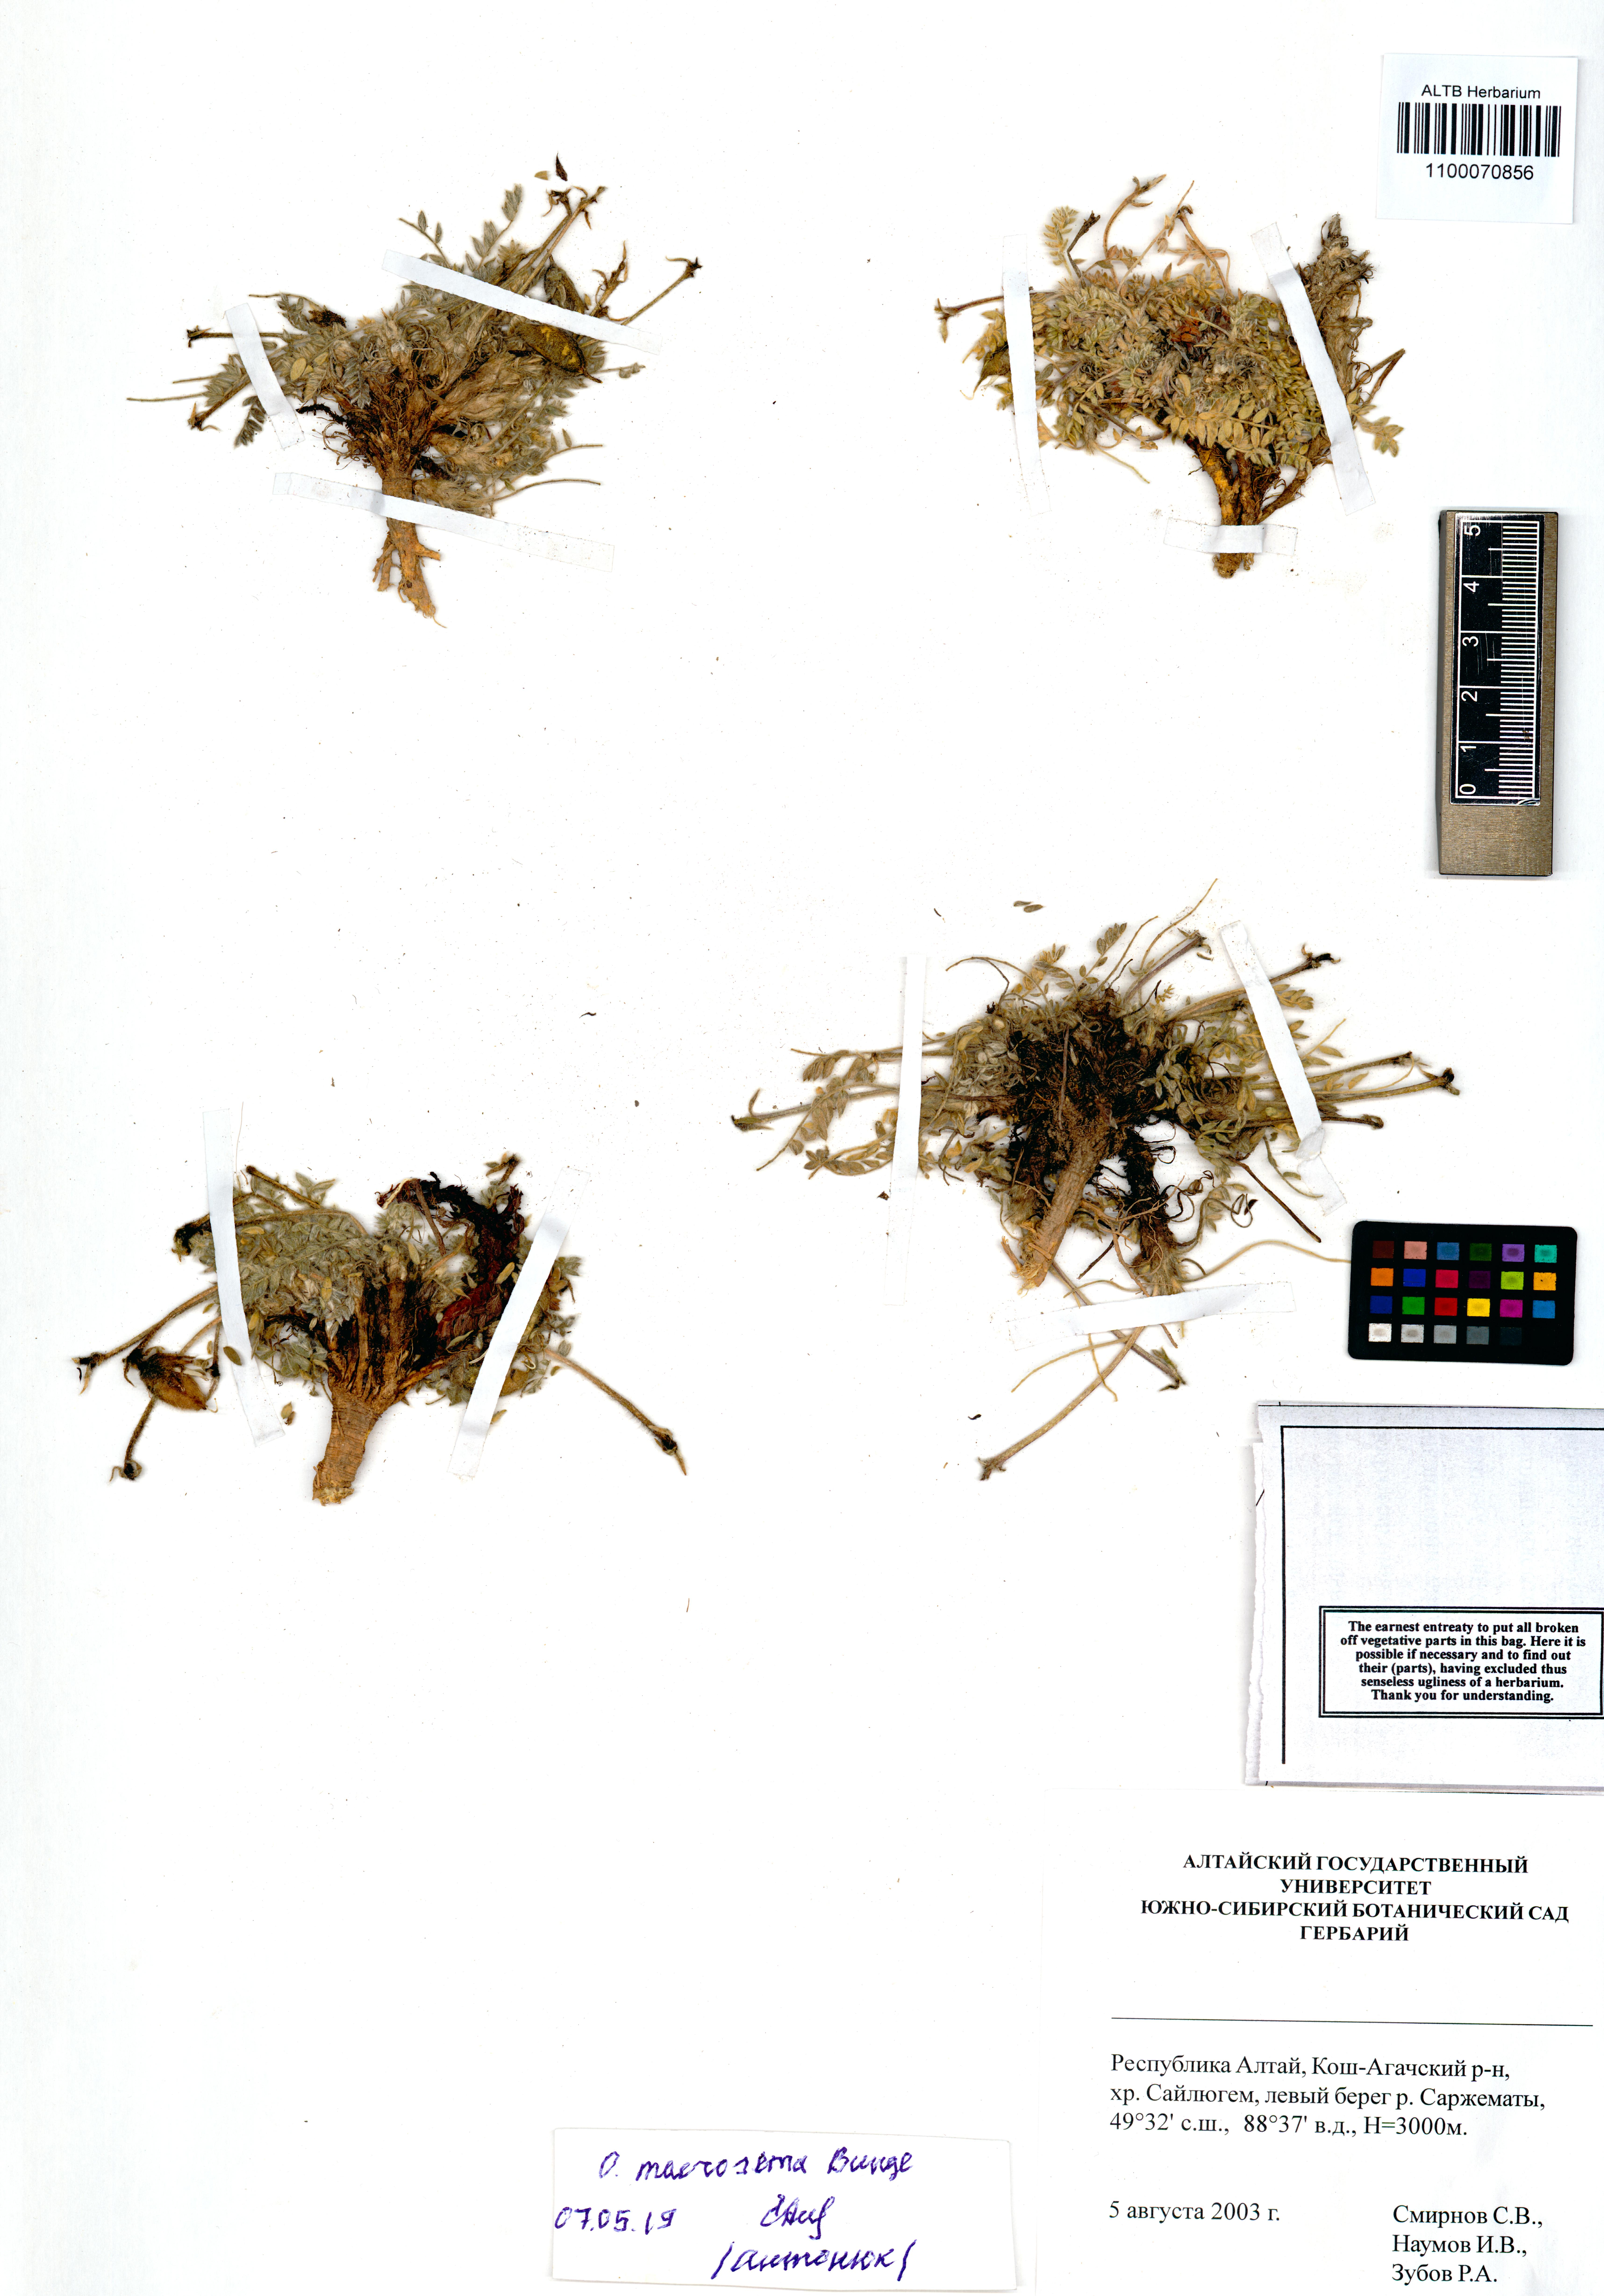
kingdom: Plantae
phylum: Tracheophyta
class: Magnoliopsida
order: Fabales
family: Fabaceae
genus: Oxytropis
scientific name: Oxytropis macrosema
